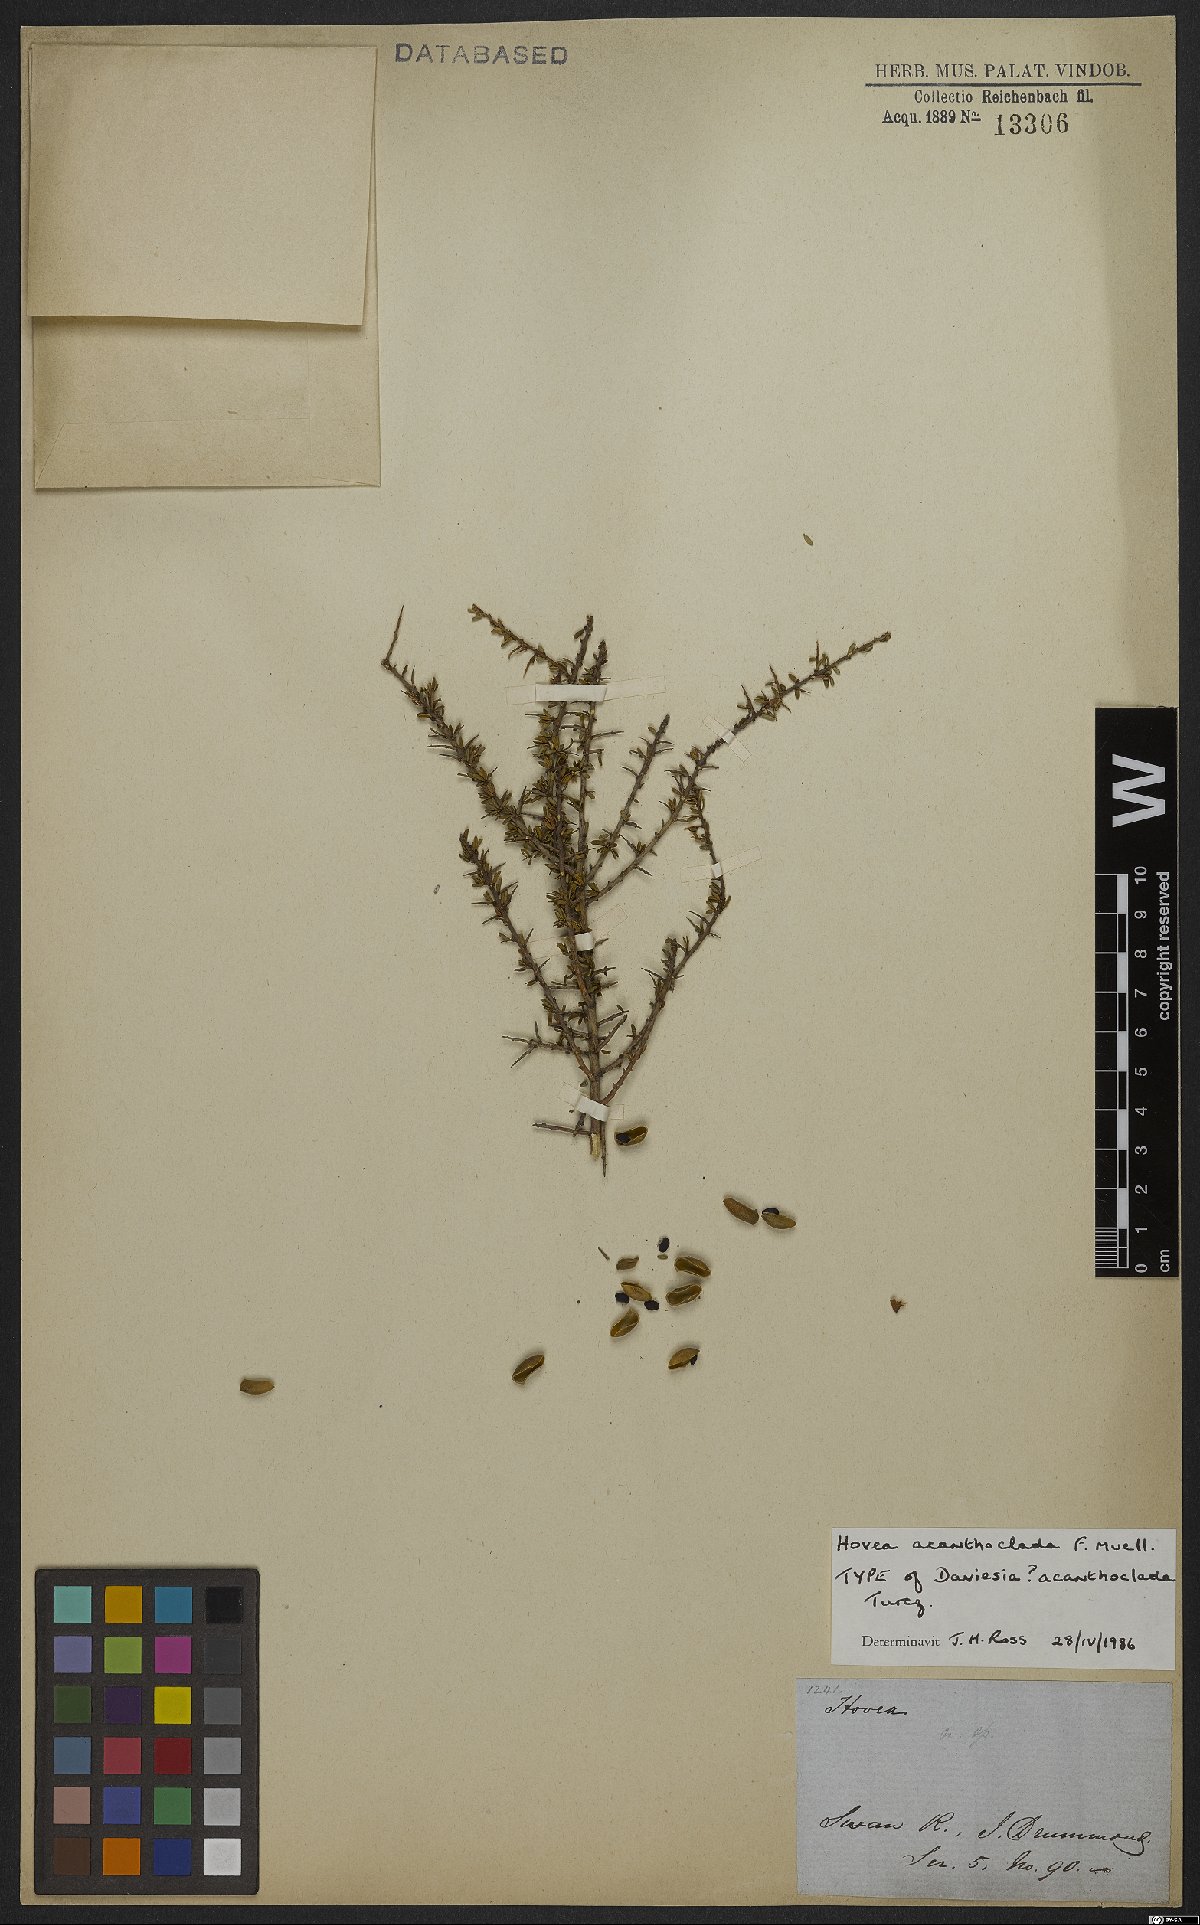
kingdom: Plantae
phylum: Tracheophyta
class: Magnoliopsida
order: Fabales
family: Fabaceae
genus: Hovea
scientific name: Hovea acanthoclada
